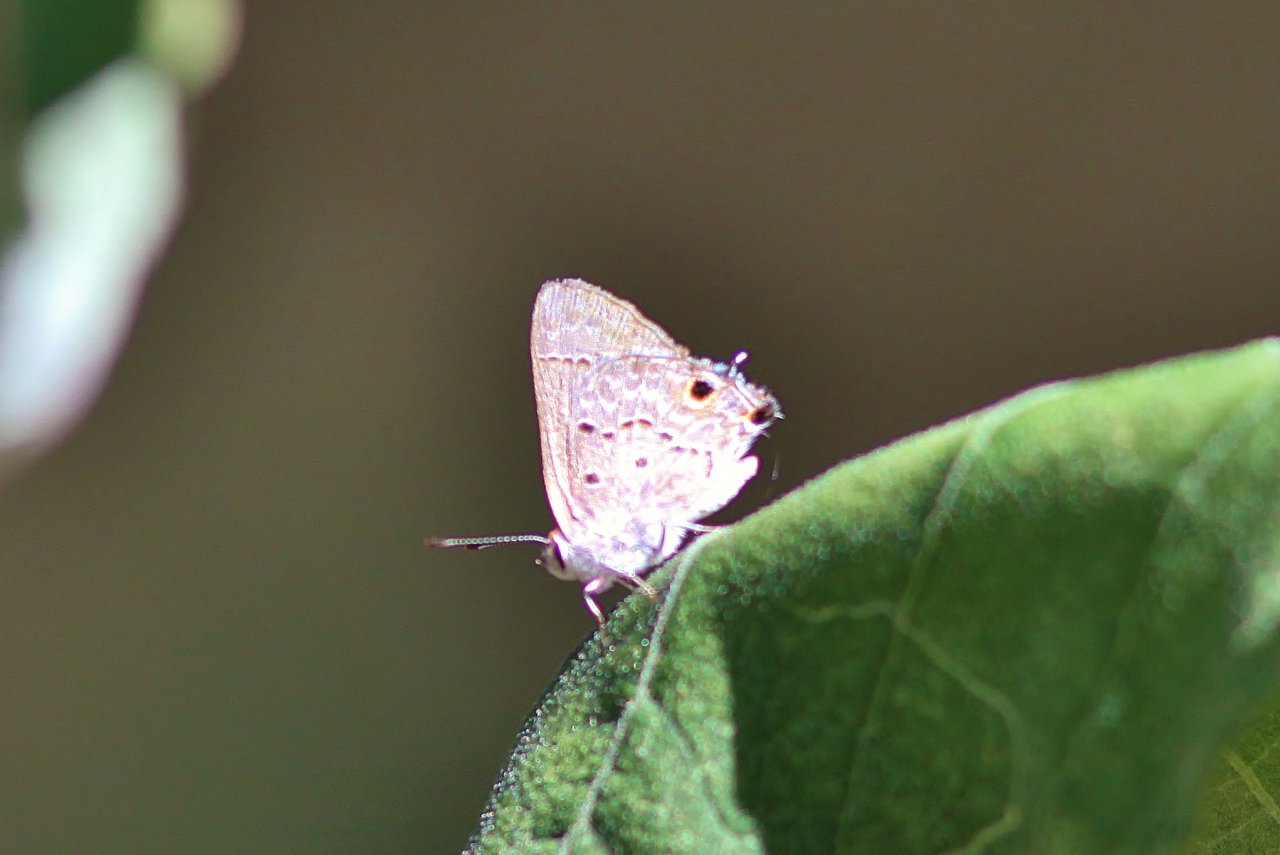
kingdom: Animalia
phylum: Arthropoda
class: Insecta
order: Lepidoptera
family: Lycaenidae
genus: Callicista
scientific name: Callicista columella
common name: Mallow Scrub-Hairstreak
